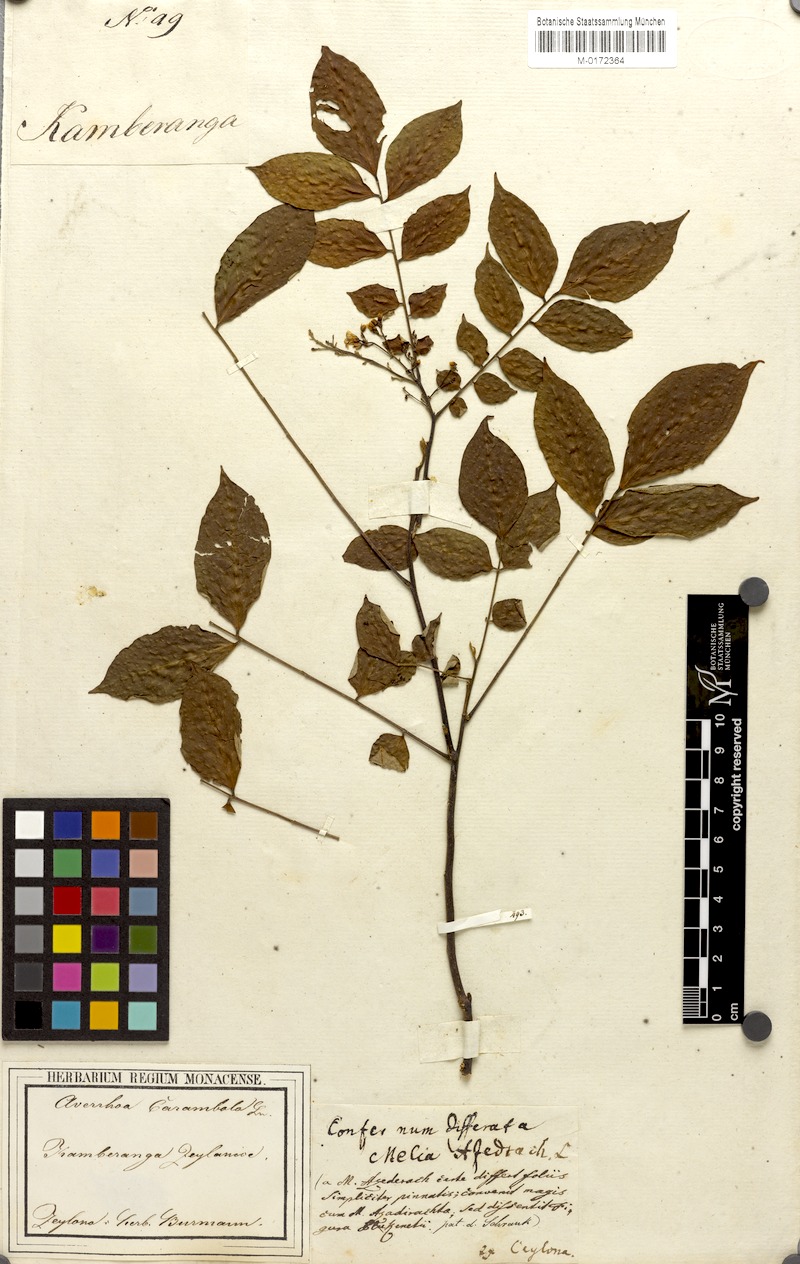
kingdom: Plantae
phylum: Tracheophyta
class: Magnoliopsida
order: Oxalidales
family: Oxalidaceae
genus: Averrhoa
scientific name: Averrhoa carambola
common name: Blimbing
